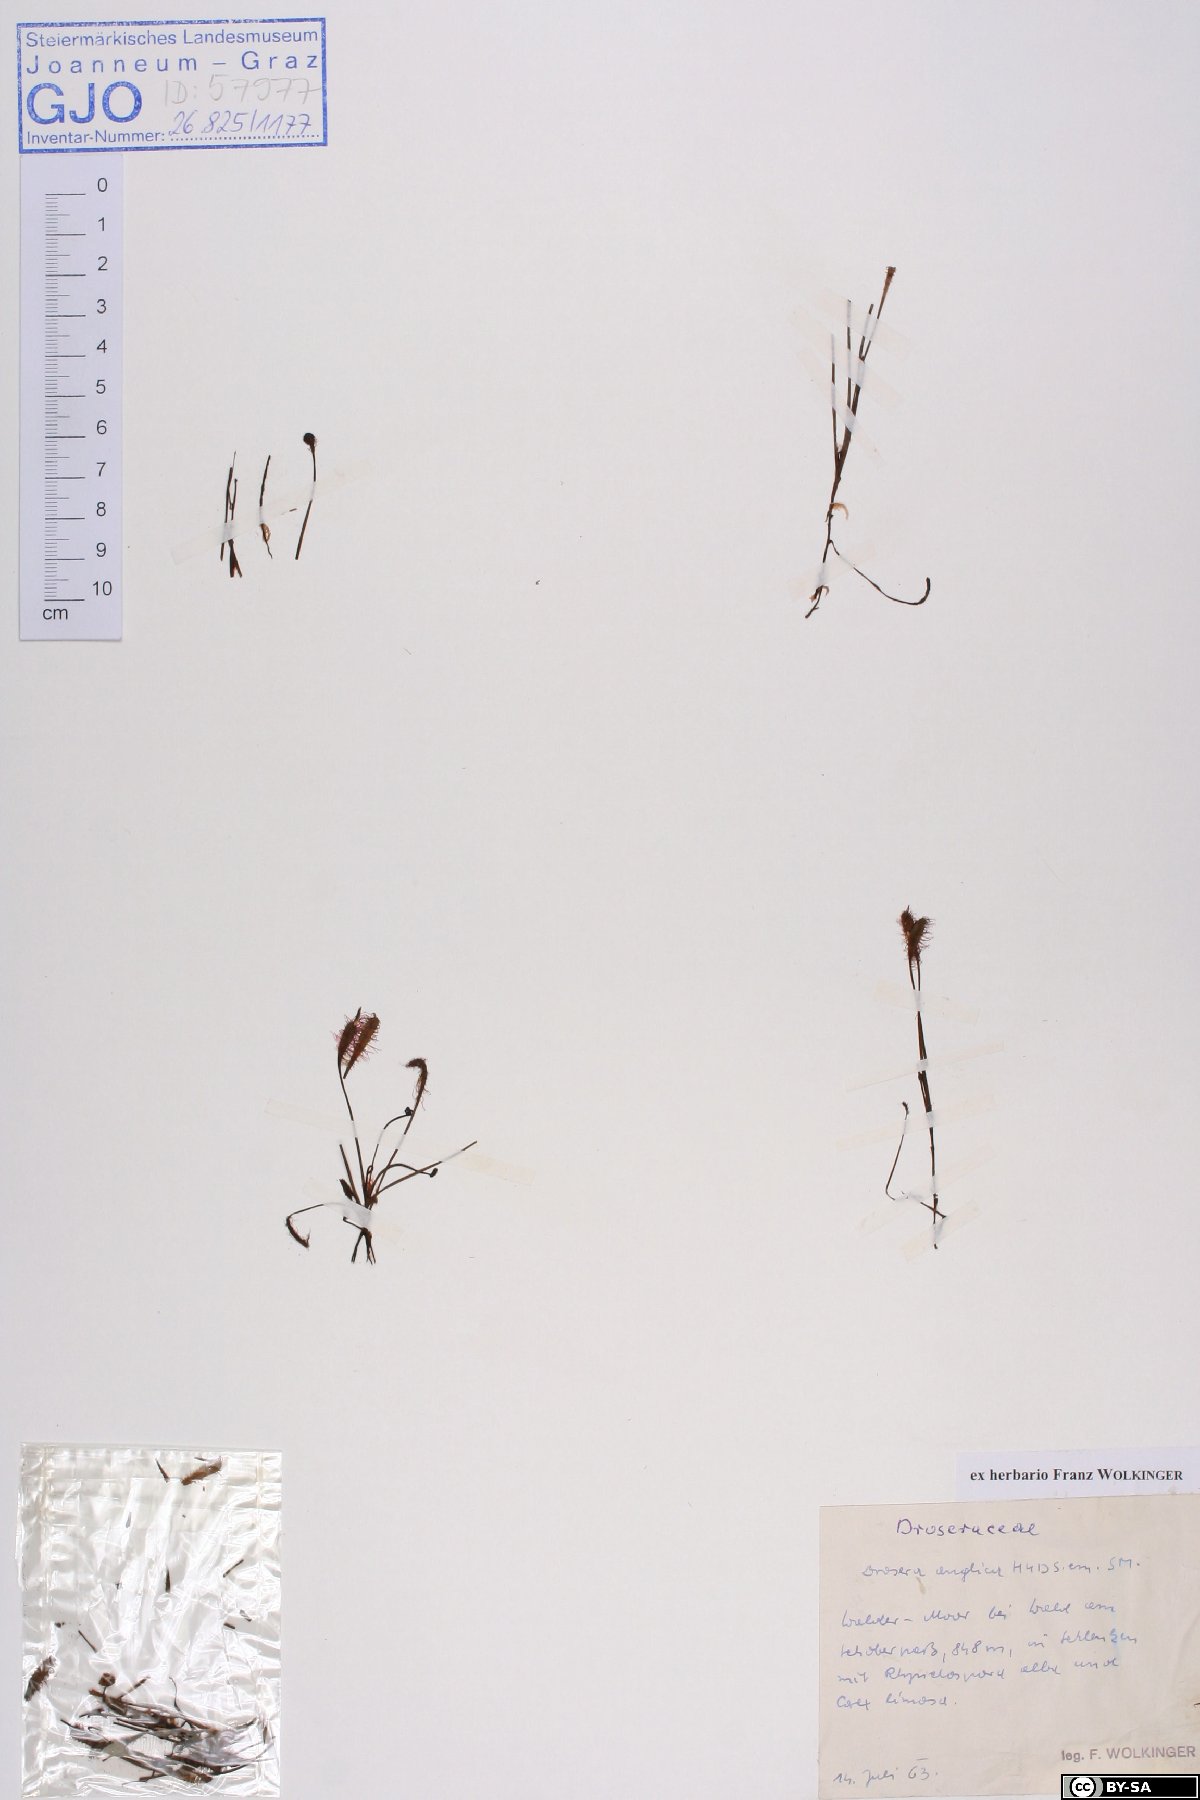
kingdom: Plantae
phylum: Tracheophyta
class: Magnoliopsida
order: Caryophyllales
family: Droseraceae
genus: Drosera
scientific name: Drosera anglica
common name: Great sundew
